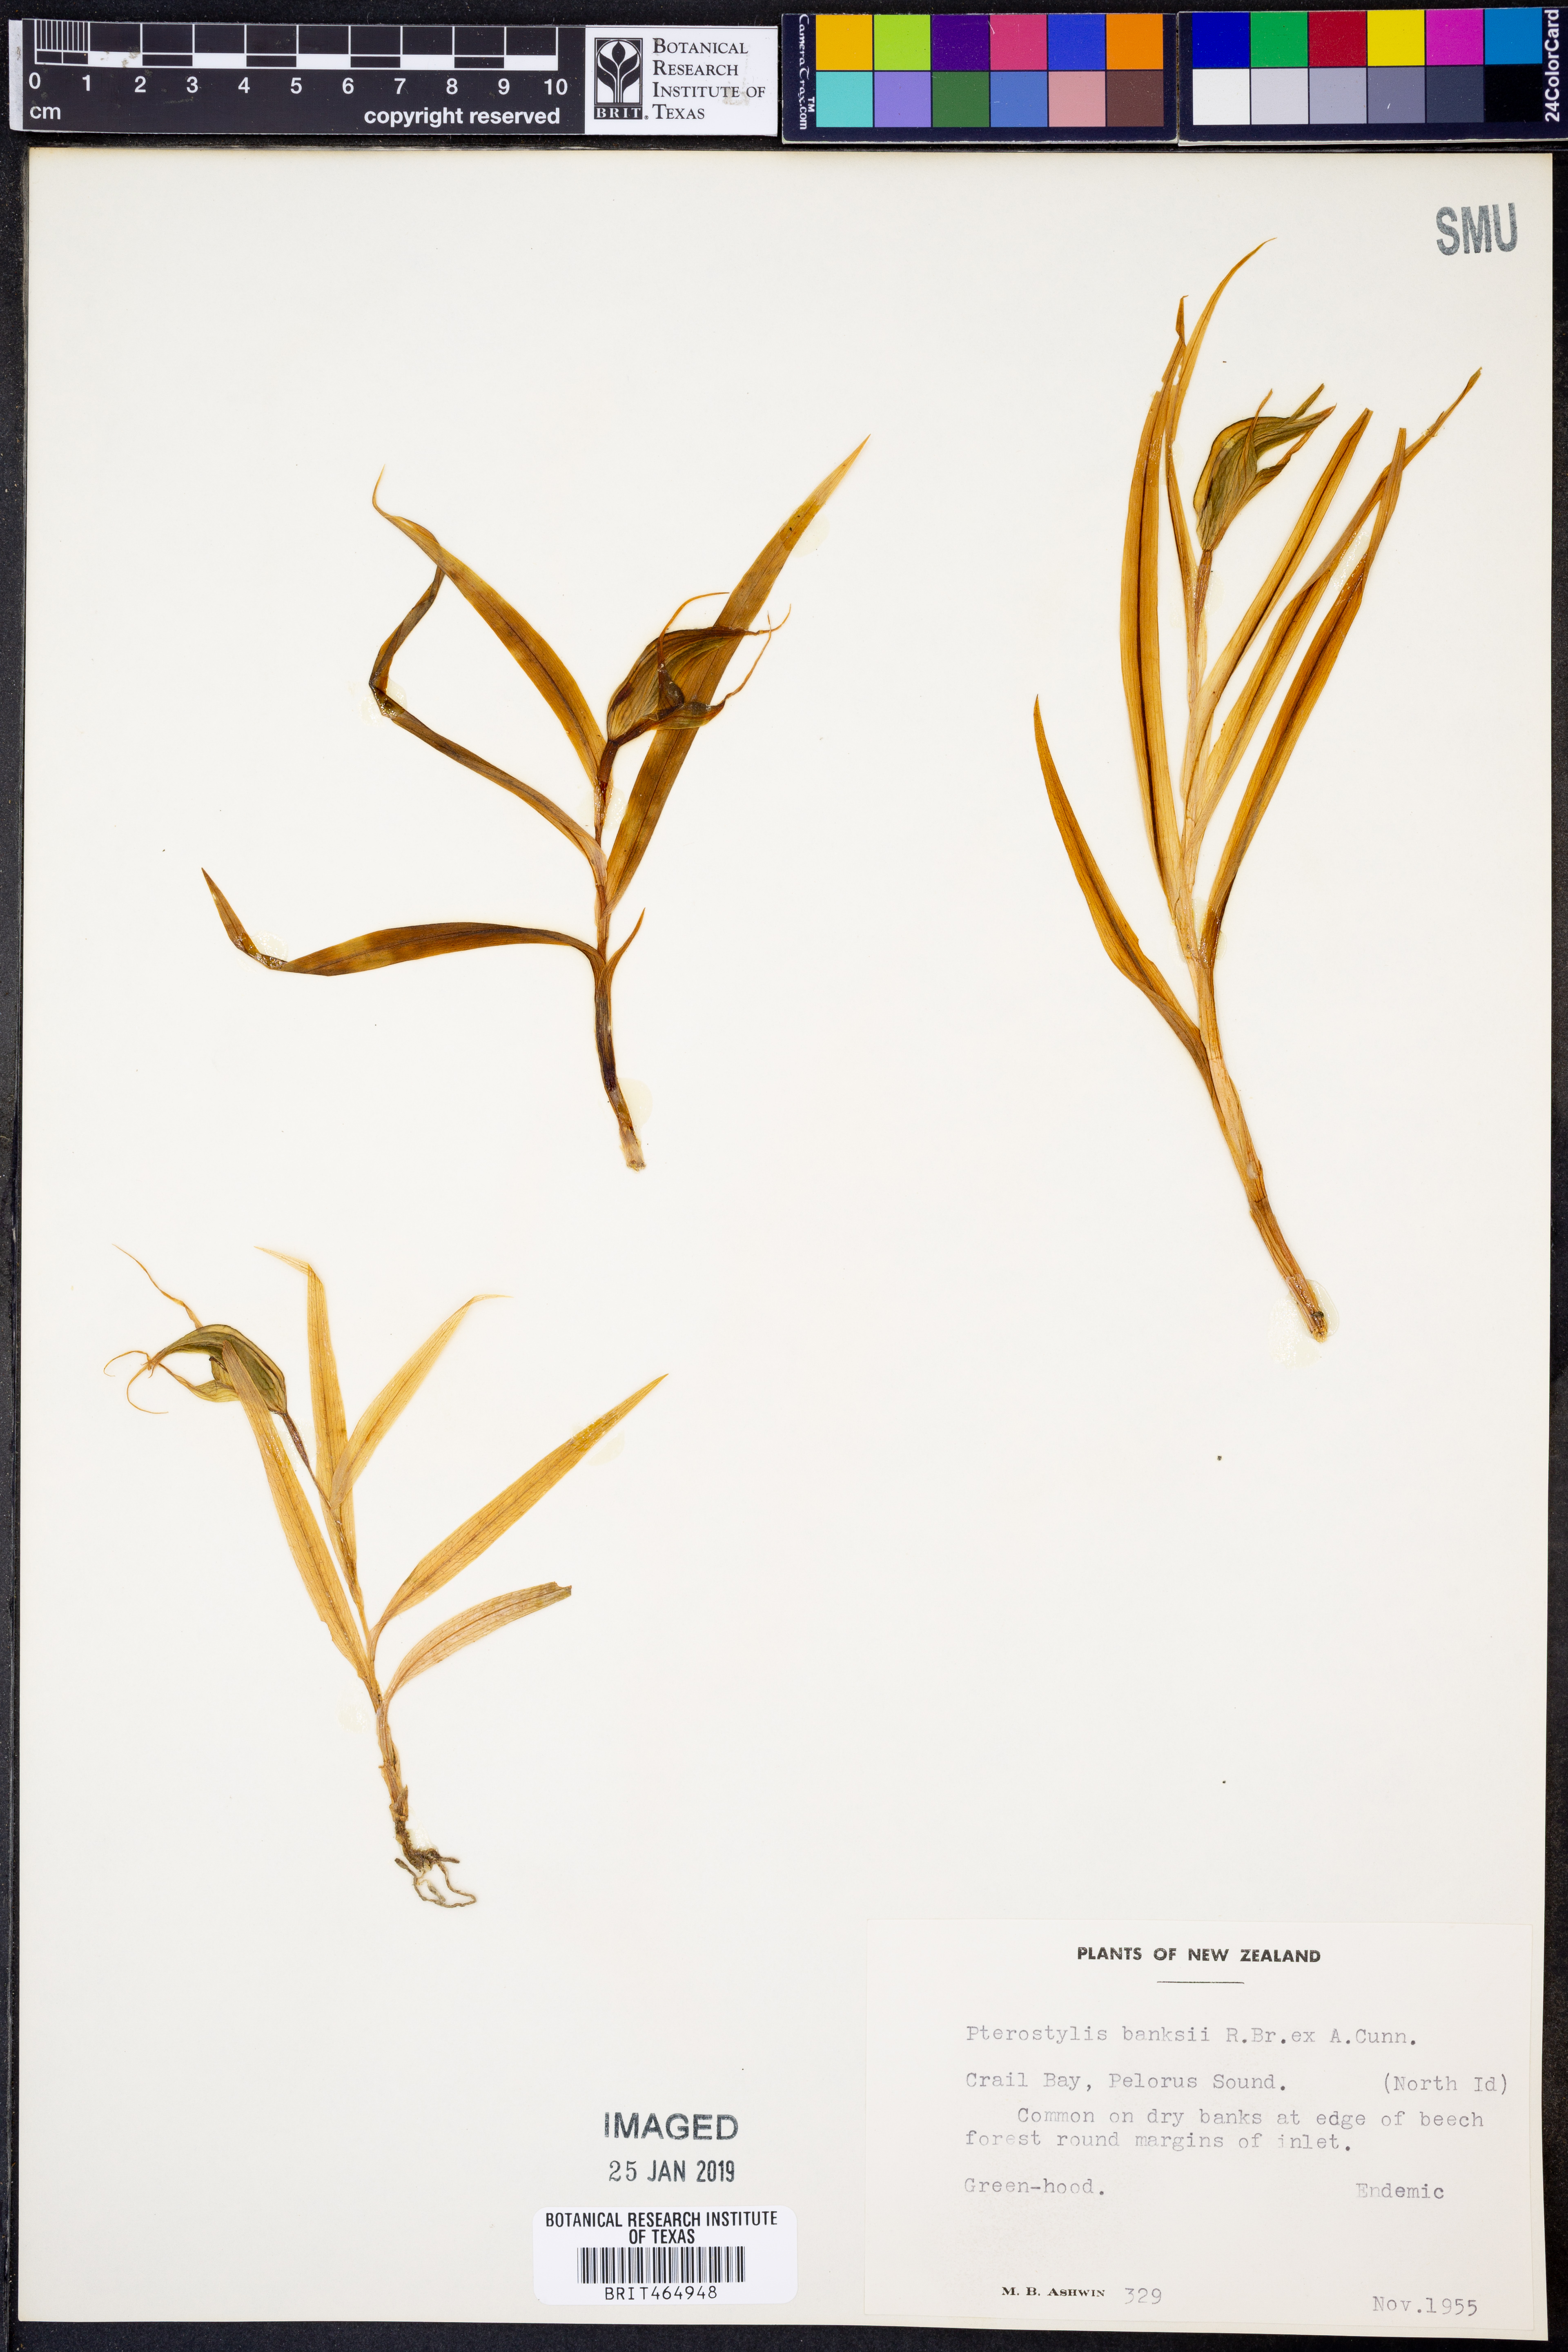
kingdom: Plantae
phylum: Tracheophyta
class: Liliopsida
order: Asparagales
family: Orchidaceae
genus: Pterostylis
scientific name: Pterostylis banksii
